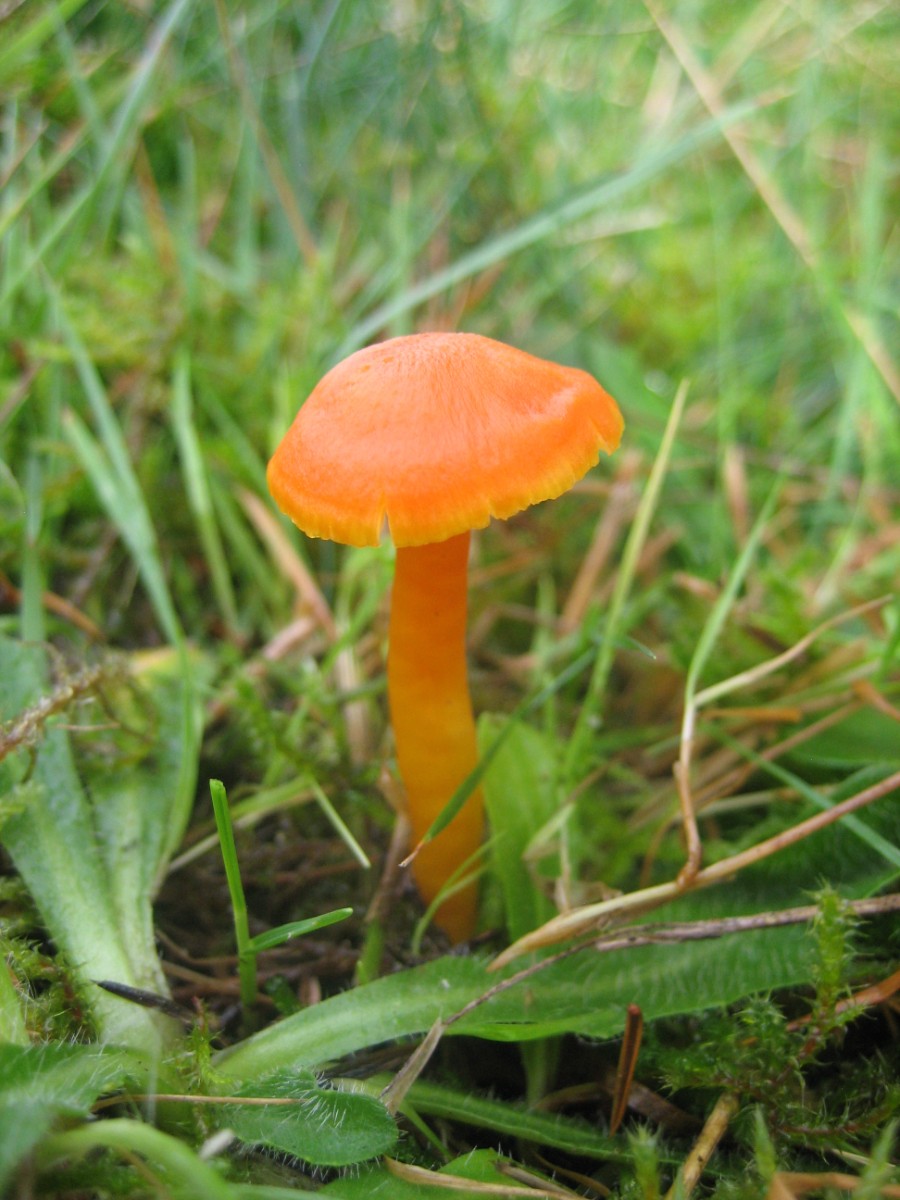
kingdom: Fungi
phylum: Basidiomycota
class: Agaricomycetes
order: Agaricales
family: Hygrophoraceae
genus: Hygrocybe
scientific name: Hygrocybe reidii
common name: honning-vokshat
